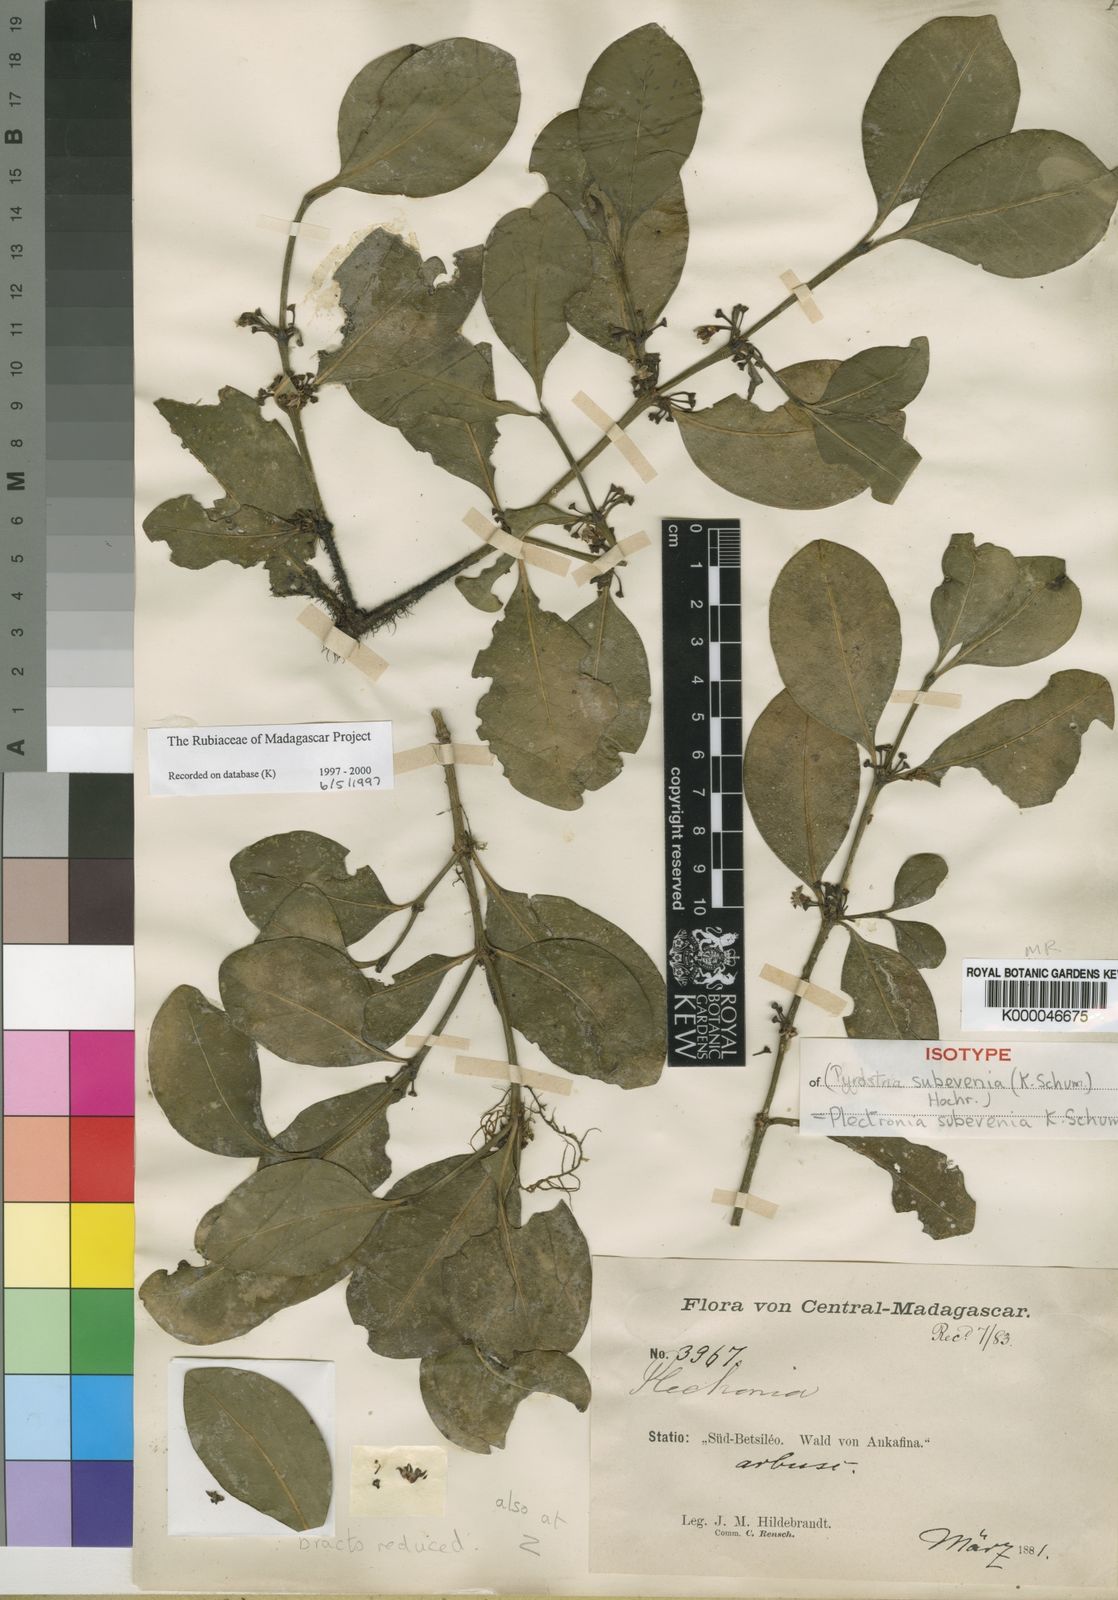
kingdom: Plantae
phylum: Tracheophyta
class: Magnoliopsida
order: Gentianales
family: Rubiaceae
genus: Peponidium
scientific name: Peponidium subevenium
